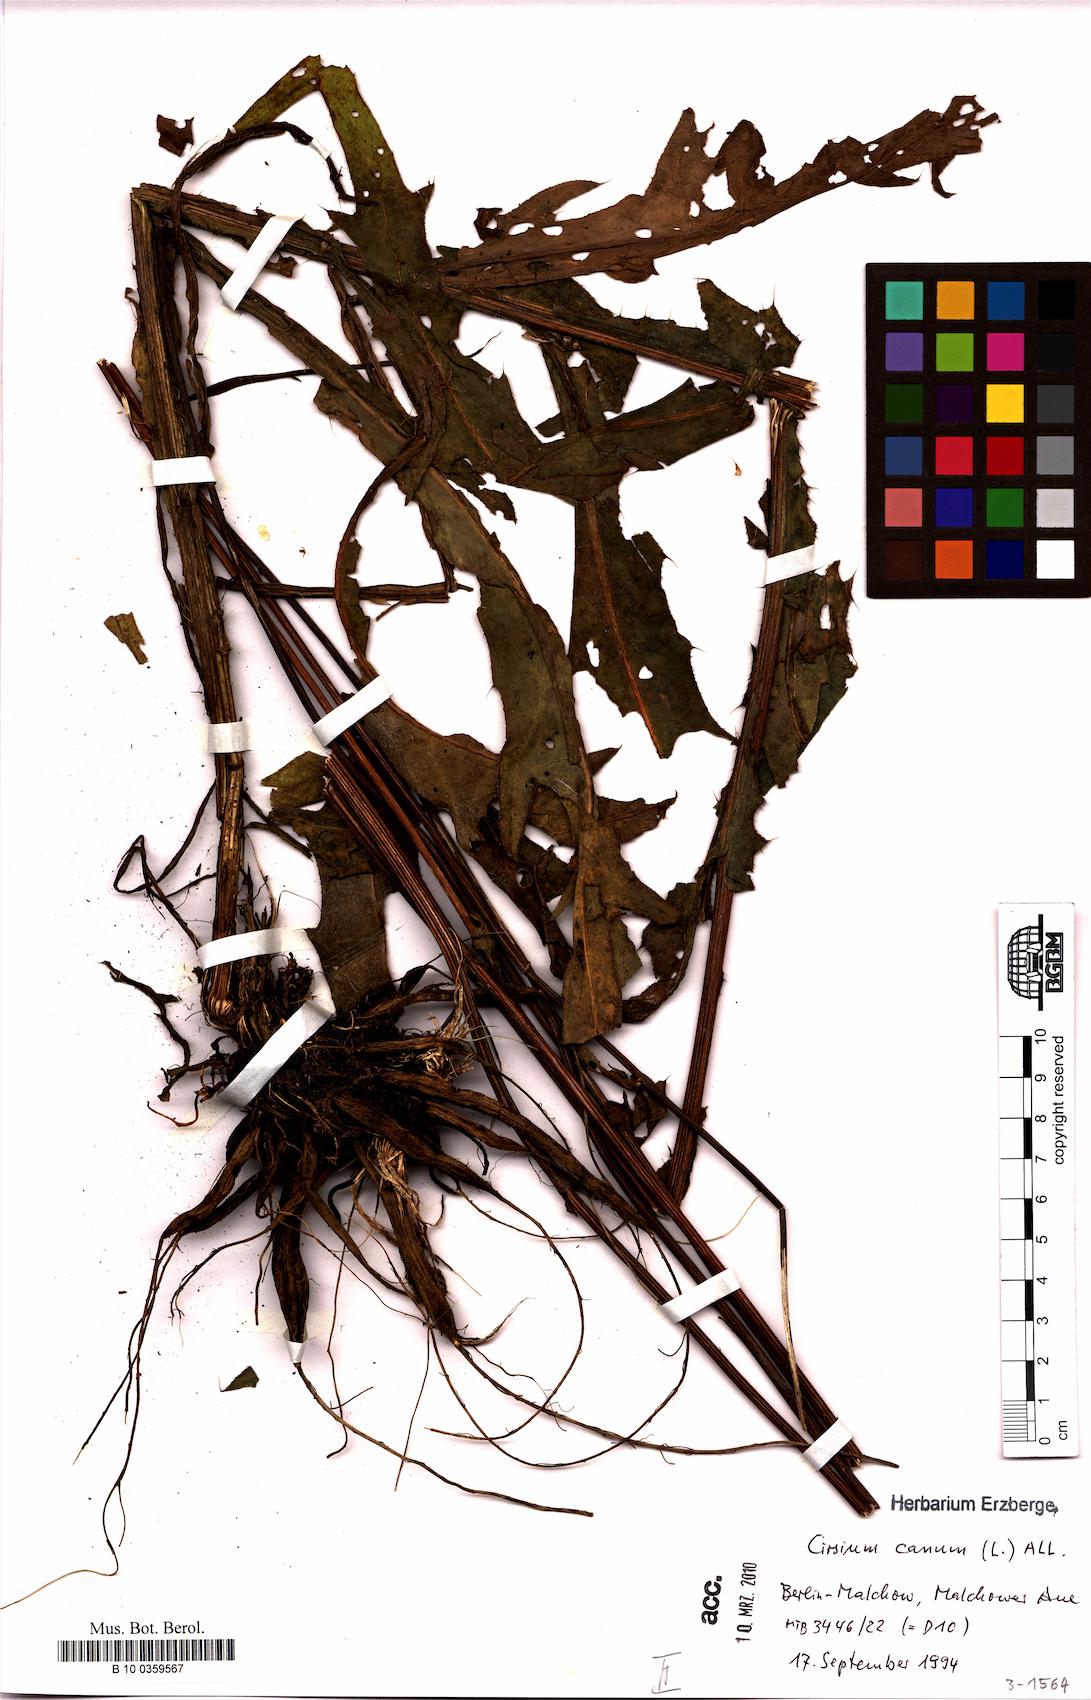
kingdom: Plantae
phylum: Tracheophyta
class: Magnoliopsida
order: Asterales
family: Asteraceae
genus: Cirsium
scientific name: Cirsium canum
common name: Queen anne's thistle
